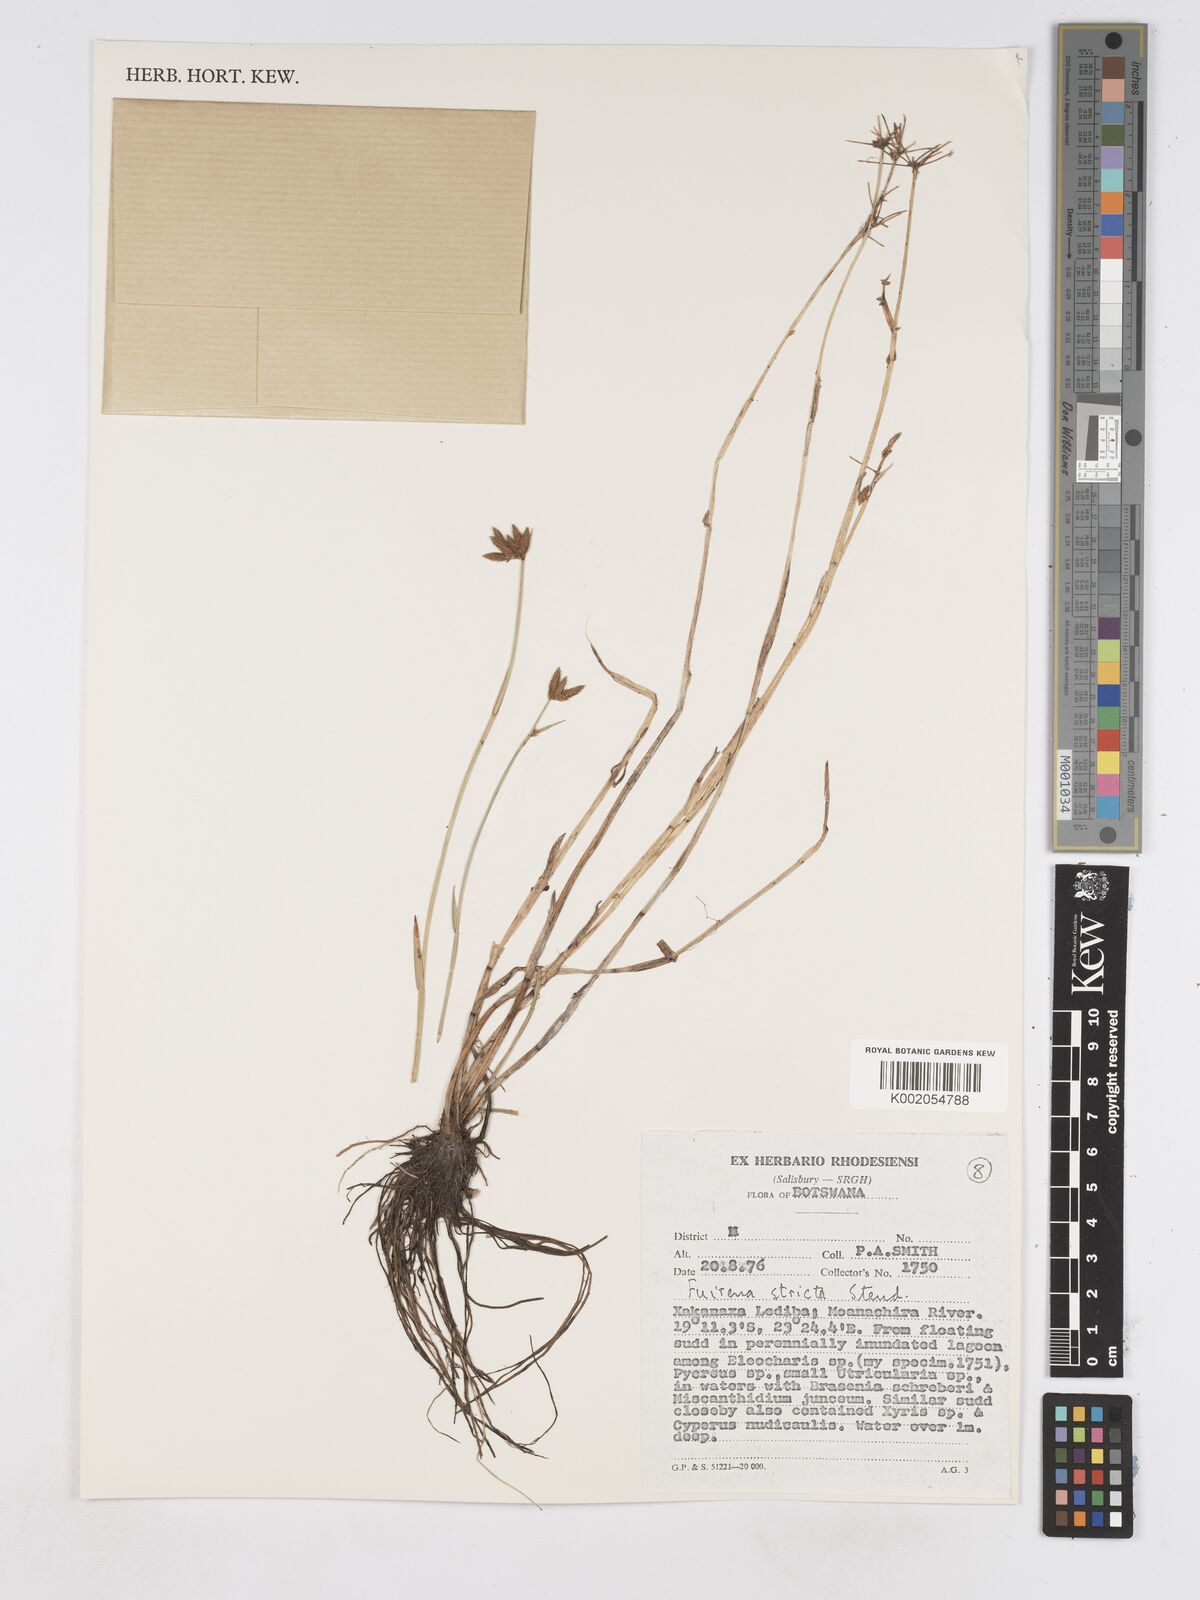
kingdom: Plantae
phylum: Tracheophyta
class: Liliopsida
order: Poales
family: Cyperaceae
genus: Fuirena
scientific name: Fuirena stricta
